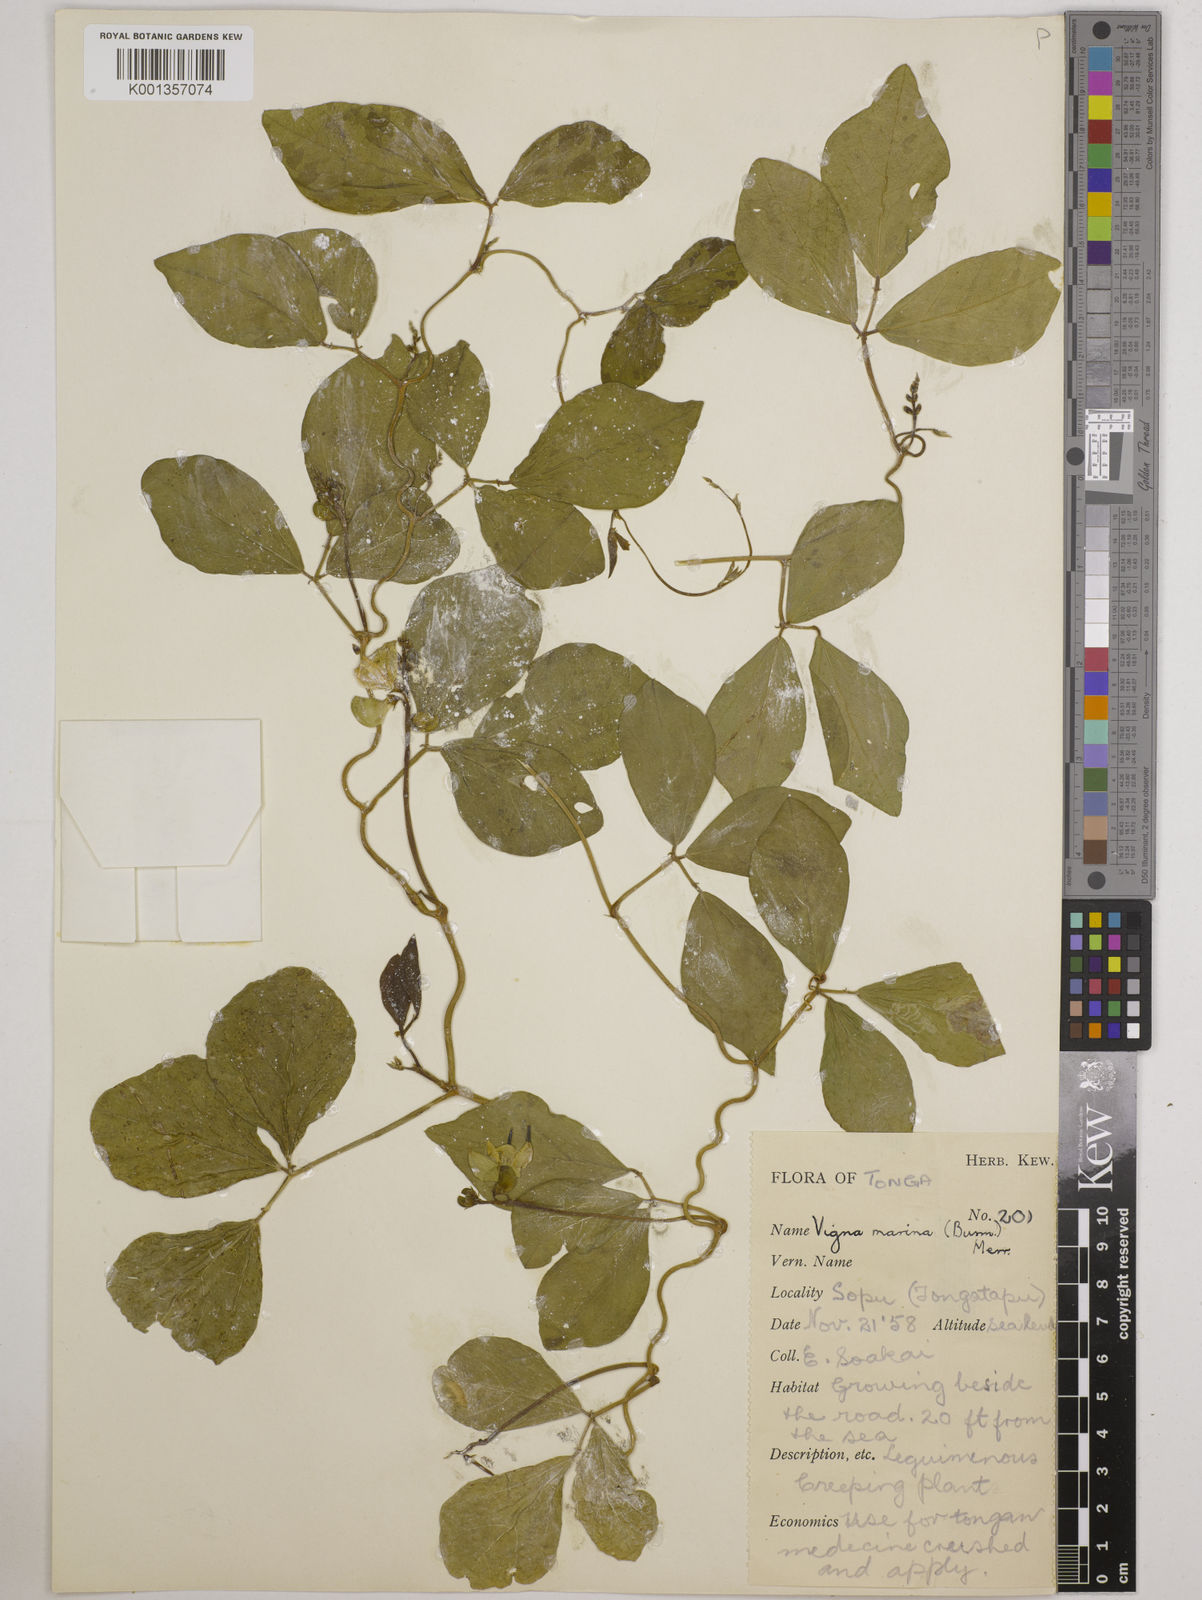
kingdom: Plantae
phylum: Tracheophyta
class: Magnoliopsida
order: Fabales
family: Fabaceae
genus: Vigna
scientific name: Vigna marina
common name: Dune-bean
